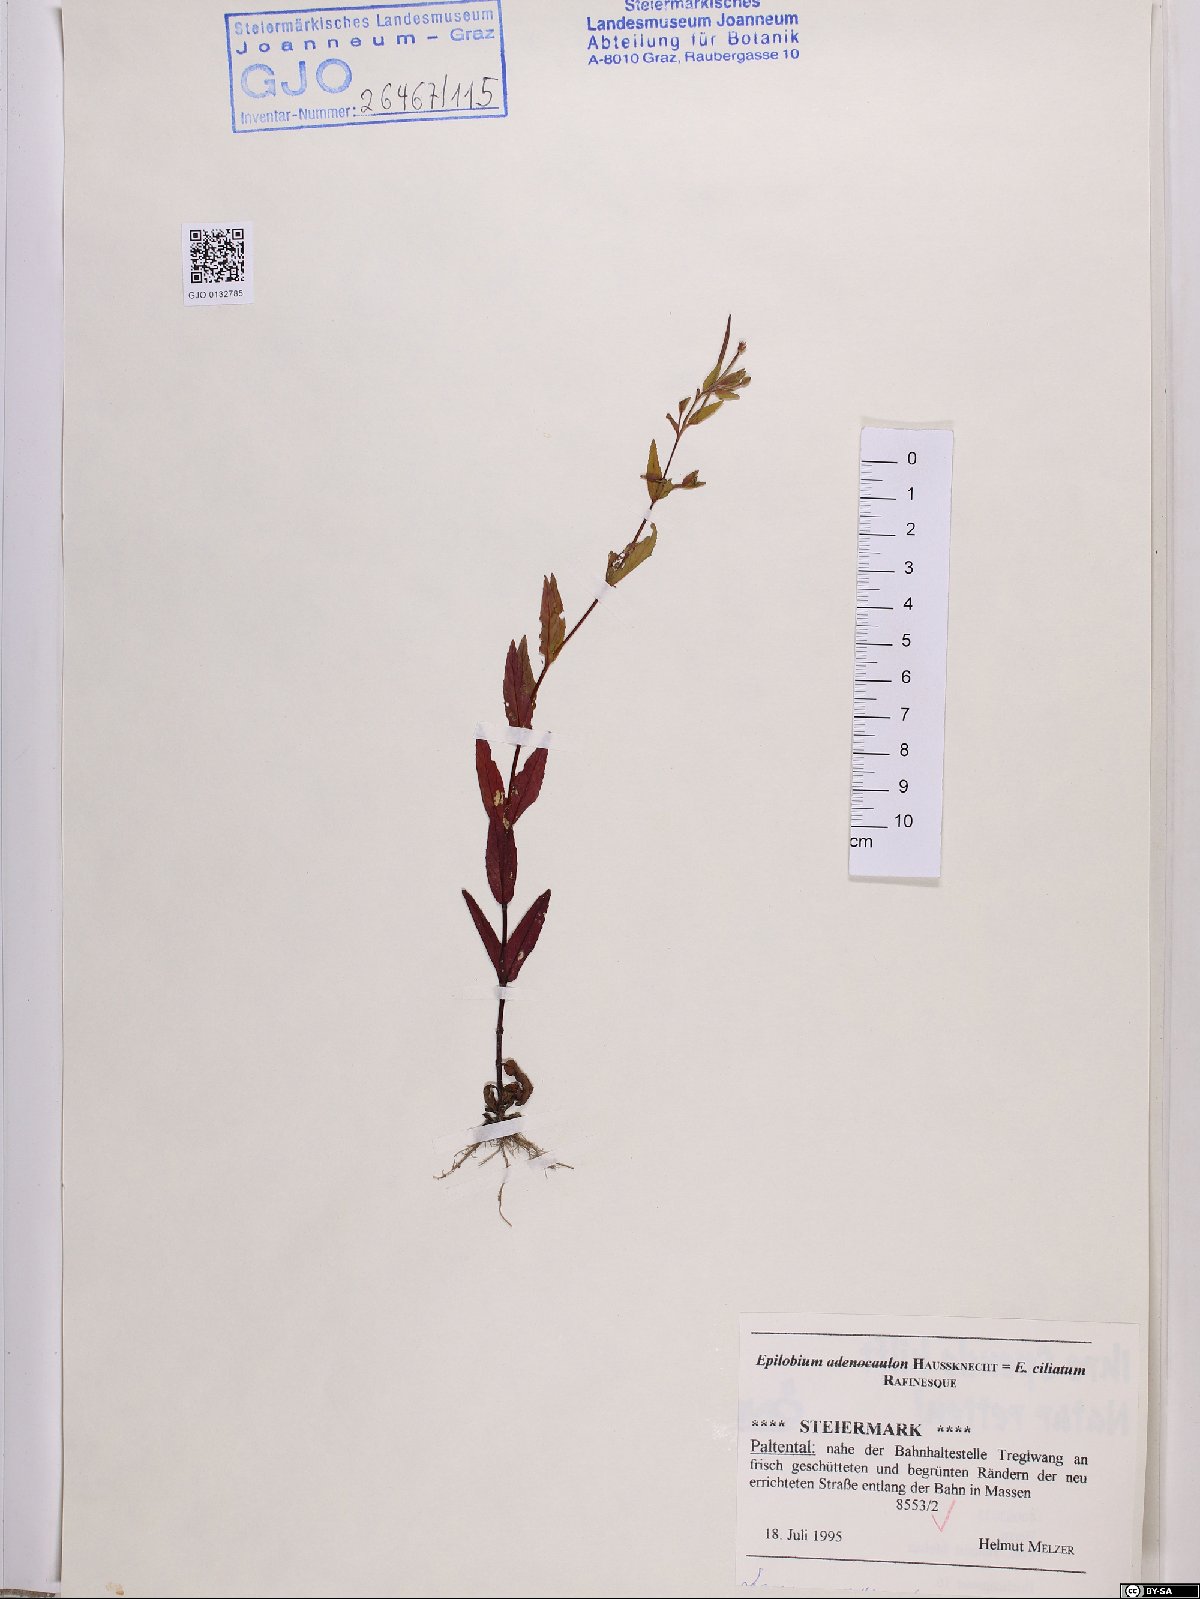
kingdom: Plantae
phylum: Tracheophyta
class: Magnoliopsida
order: Myrtales
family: Onagraceae
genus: Epilobium
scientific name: Epilobium ciliatum
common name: American willowherb
